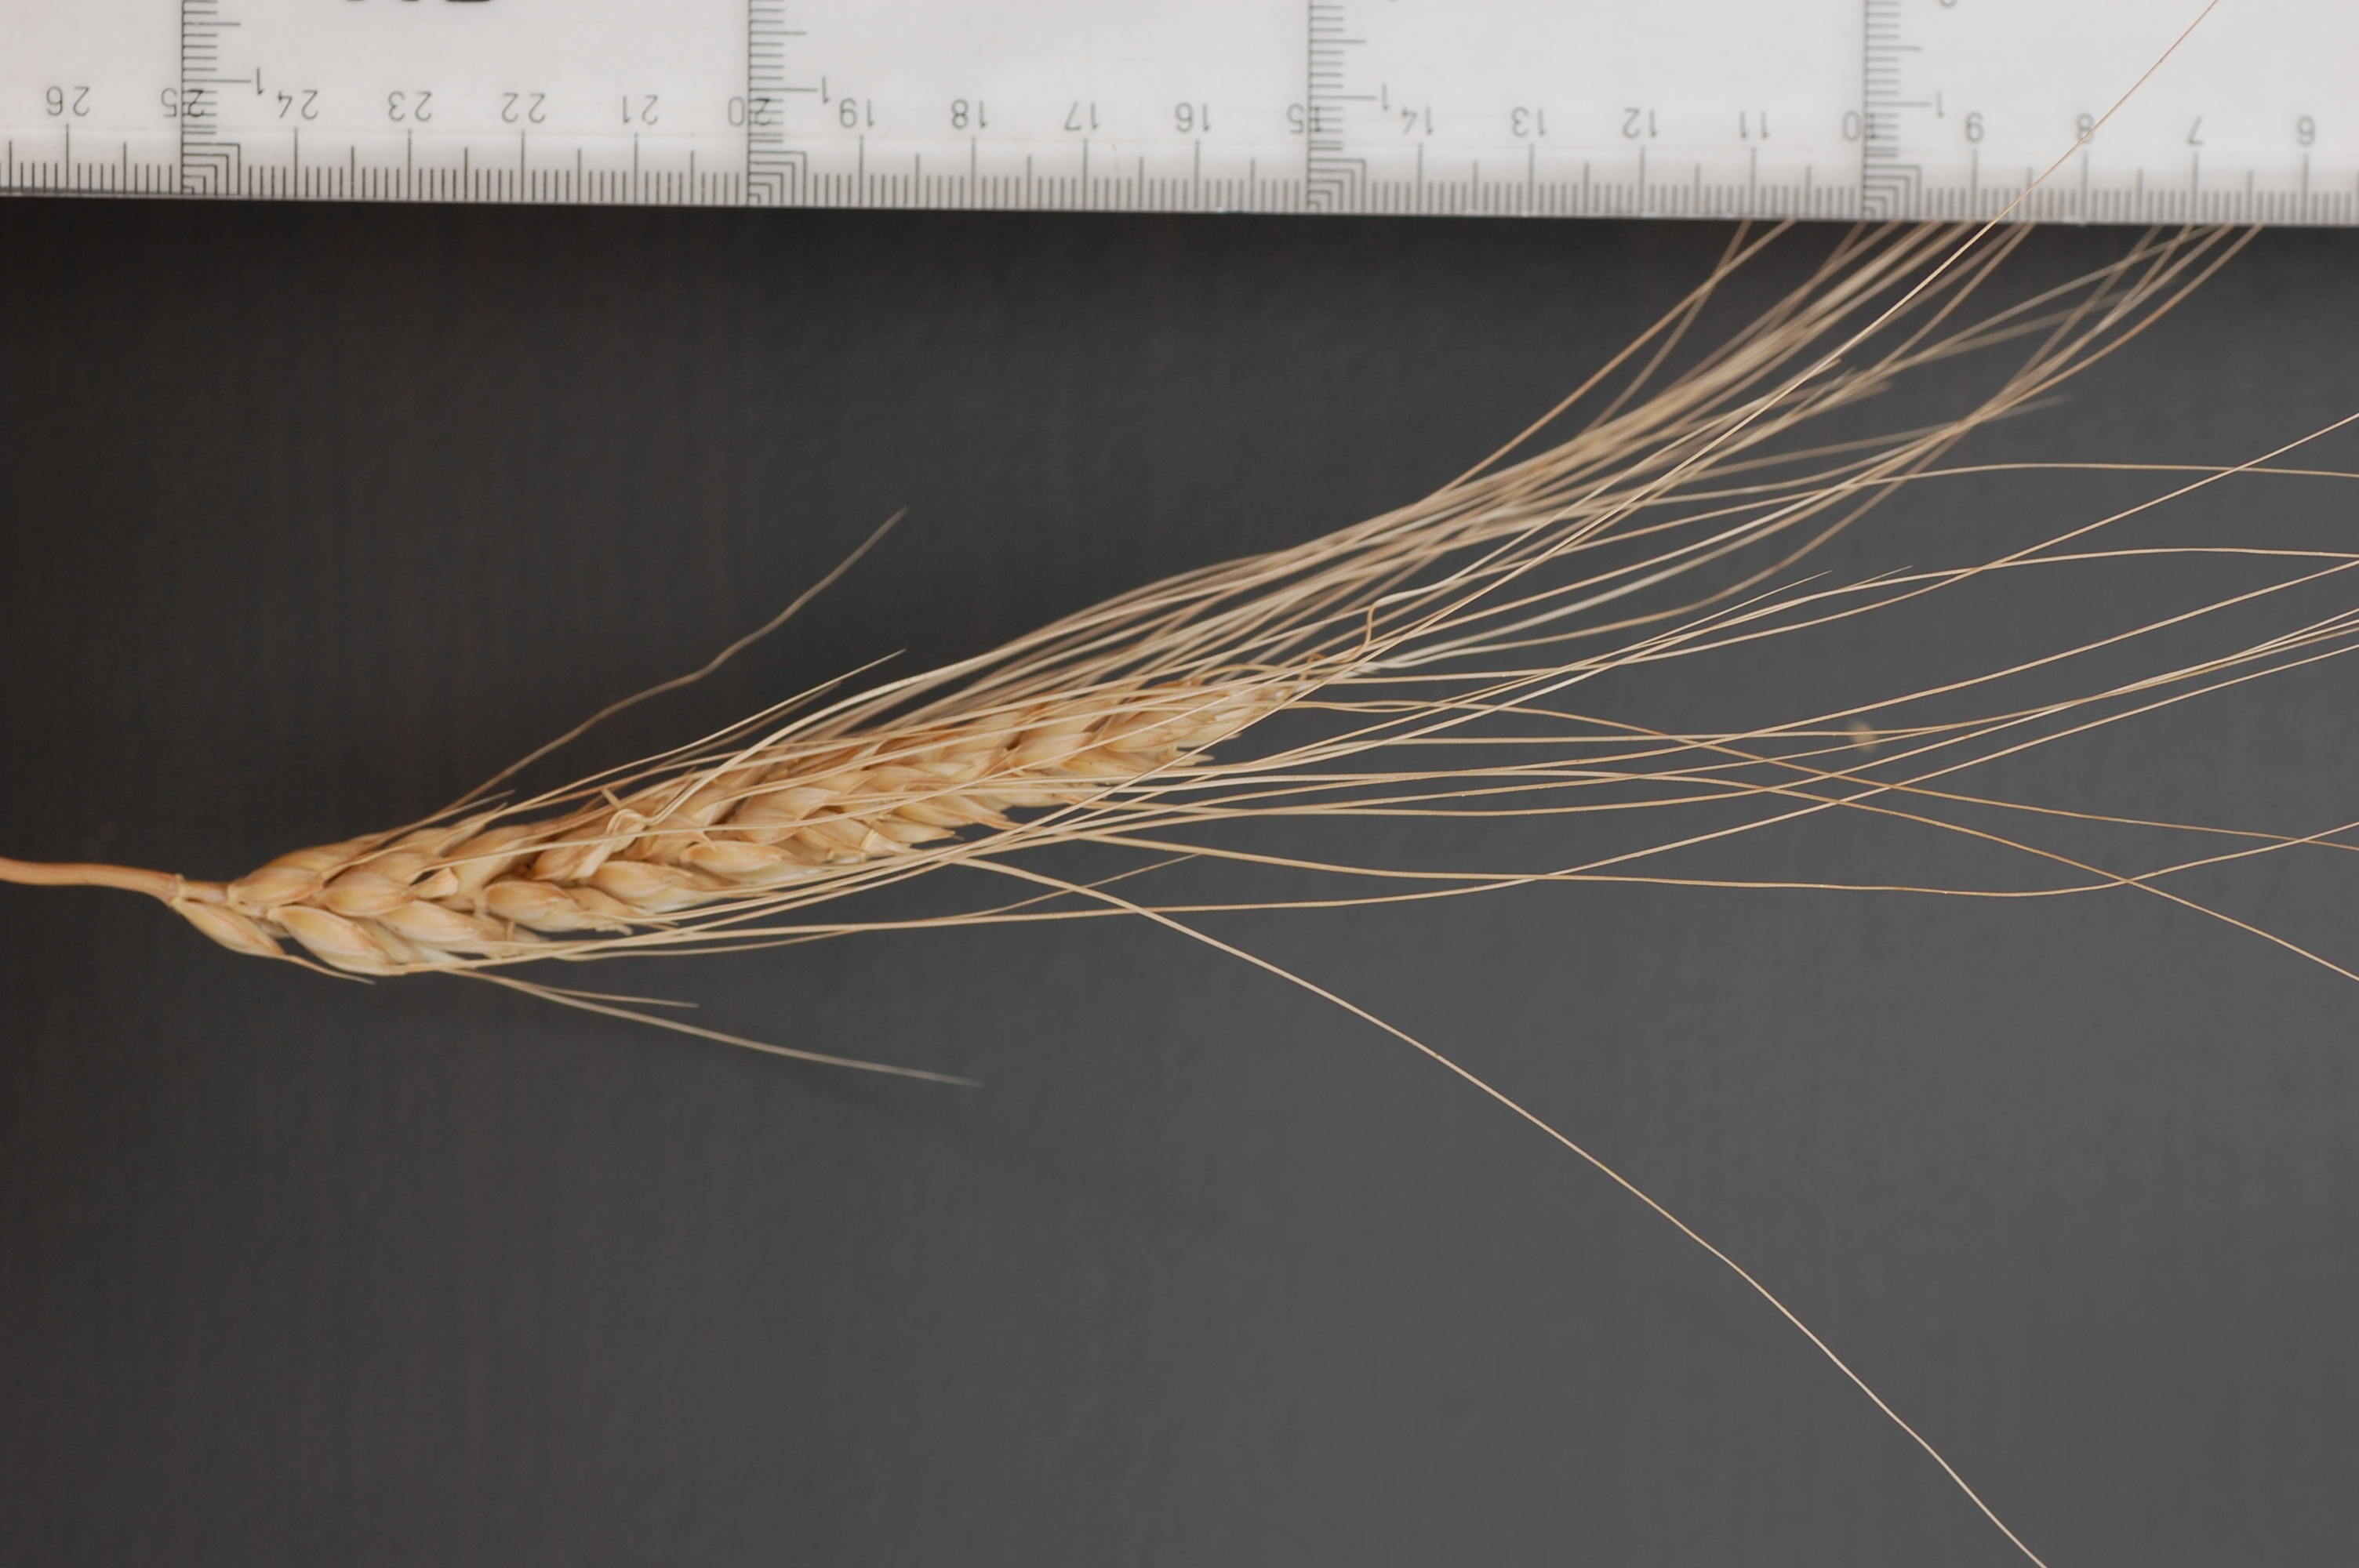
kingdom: Plantae
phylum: Tracheophyta
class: Liliopsida
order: Poales
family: Poaceae
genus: Triticum
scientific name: Triticum aestivum
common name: Common wheat
